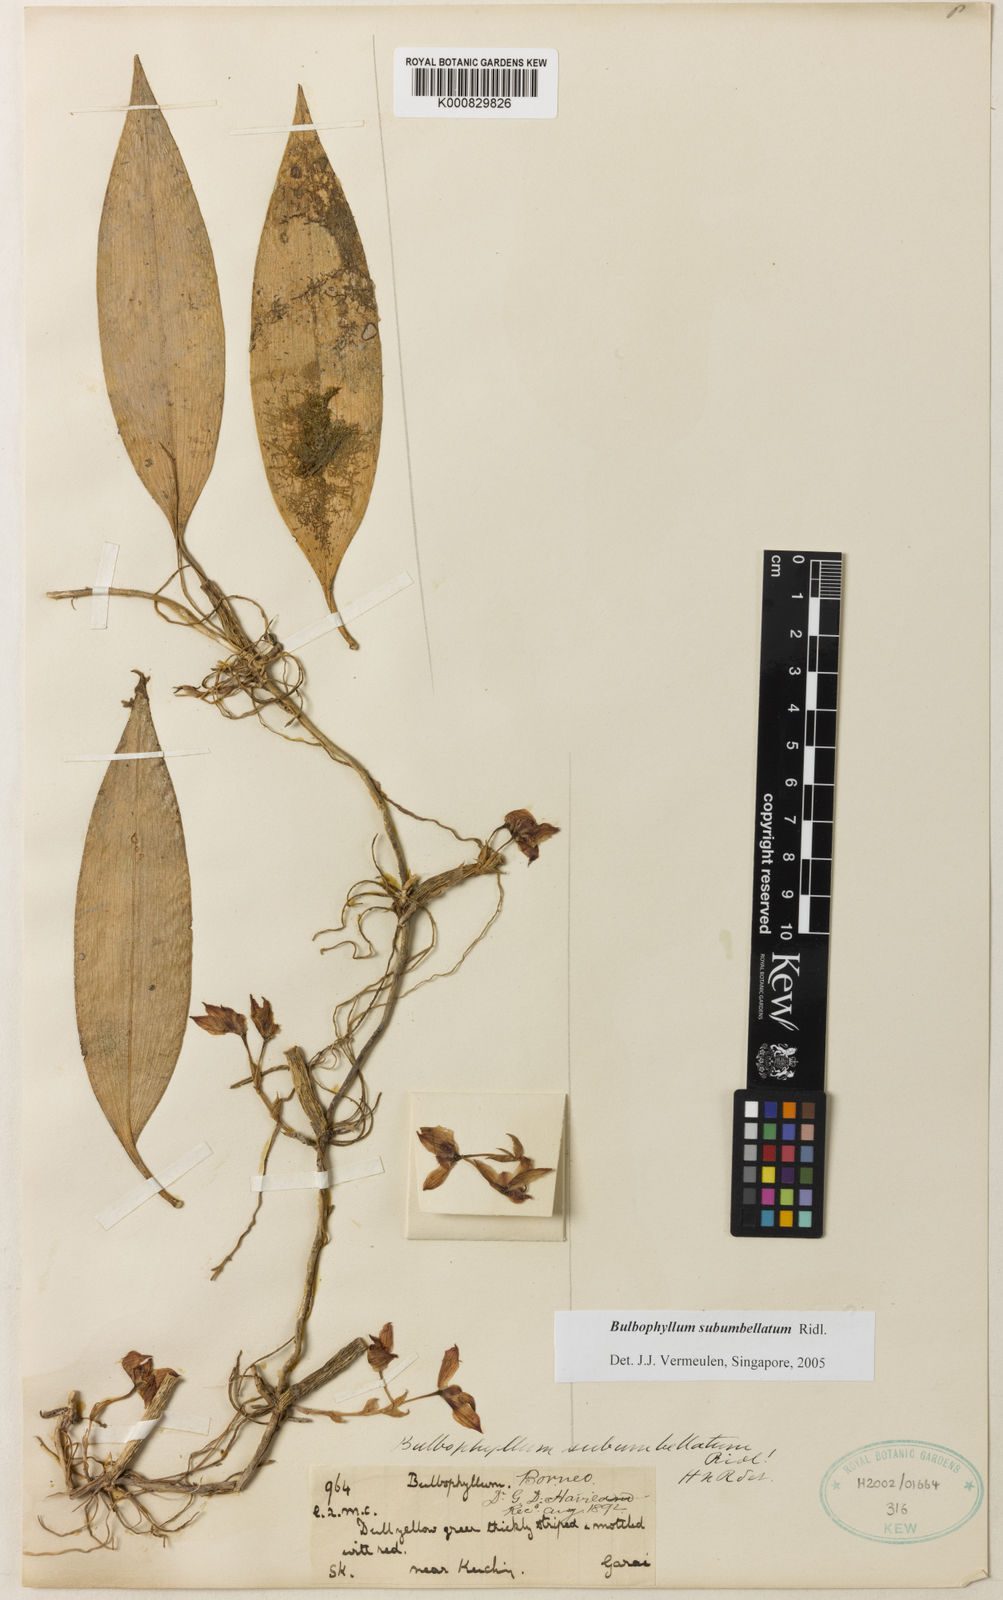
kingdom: Plantae
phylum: Tracheophyta
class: Liliopsida
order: Asparagales
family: Orchidaceae
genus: Bulbophyllum
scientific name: Bulbophyllum subumbellatum
